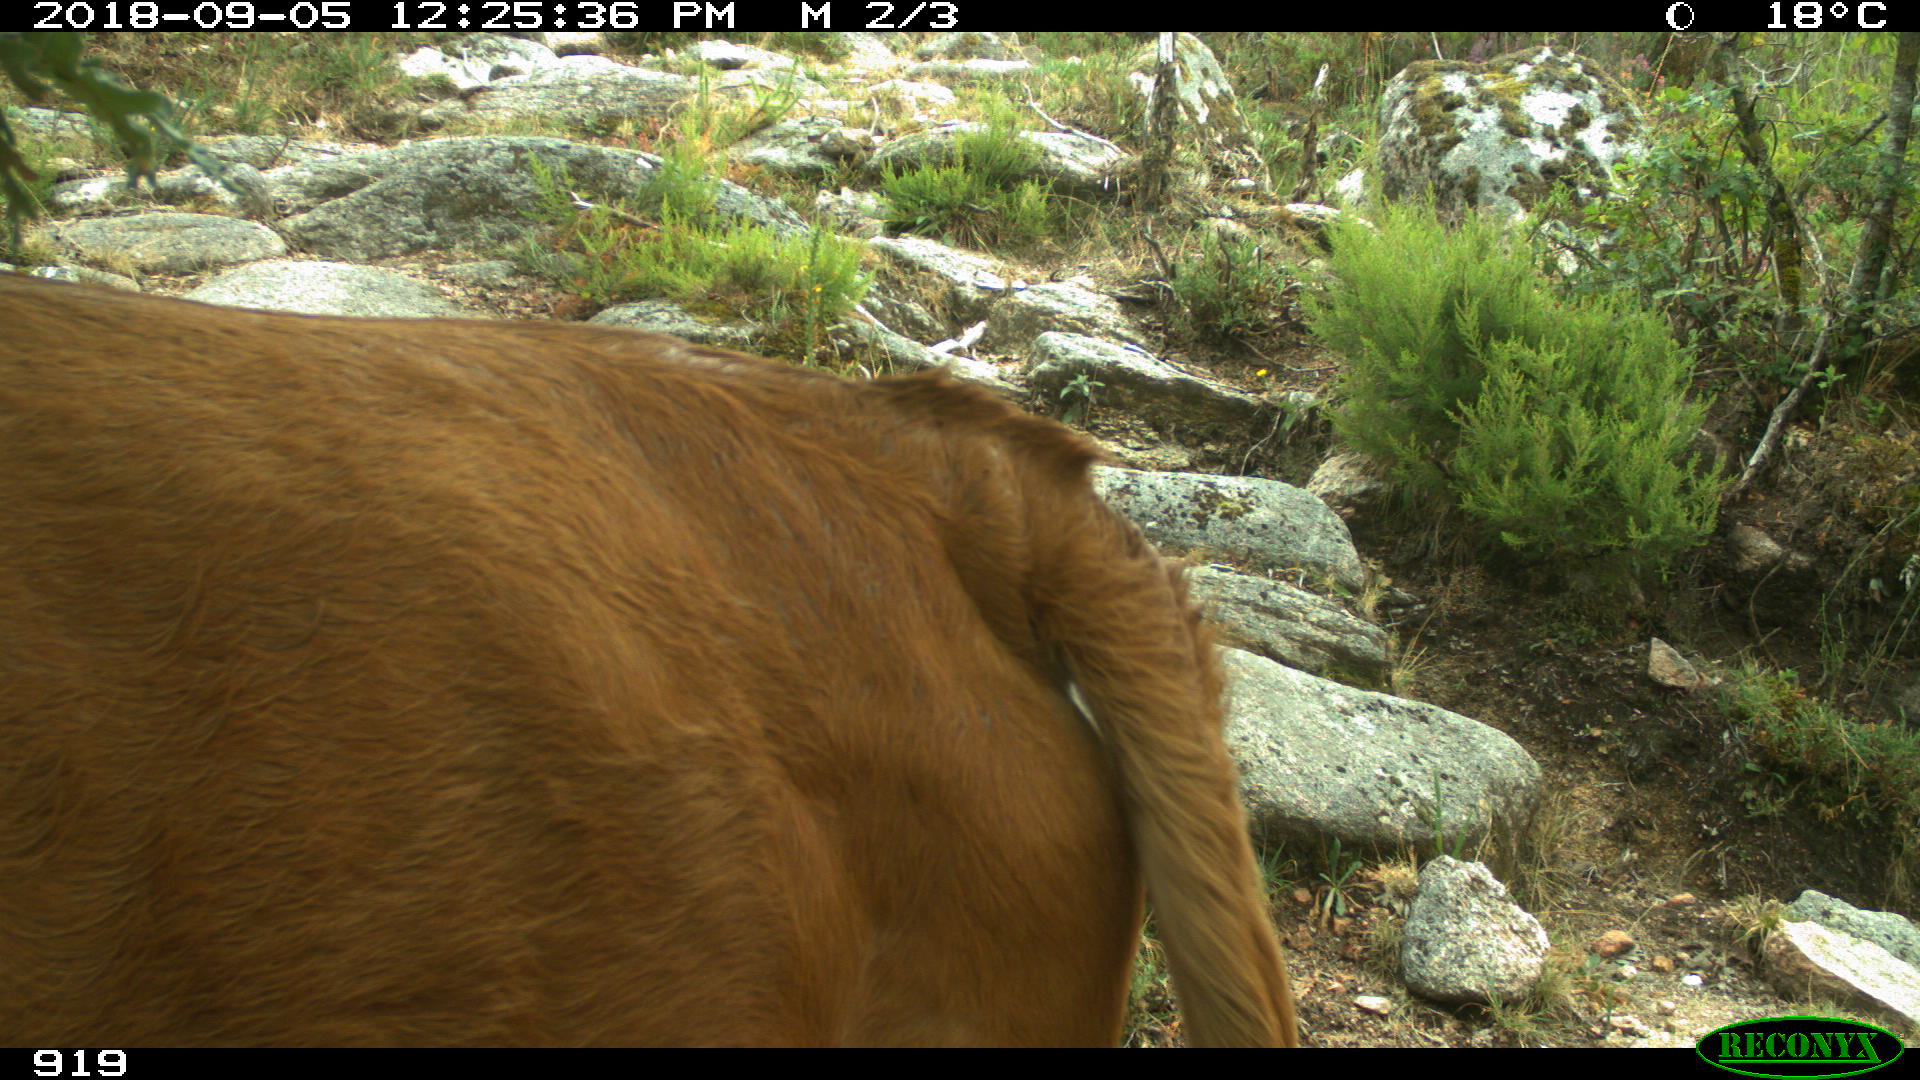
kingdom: Animalia
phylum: Chordata
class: Mammalia
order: Artiodactyla
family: Bovidae
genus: Bos
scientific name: Bos taurus
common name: Domesticated cattle
